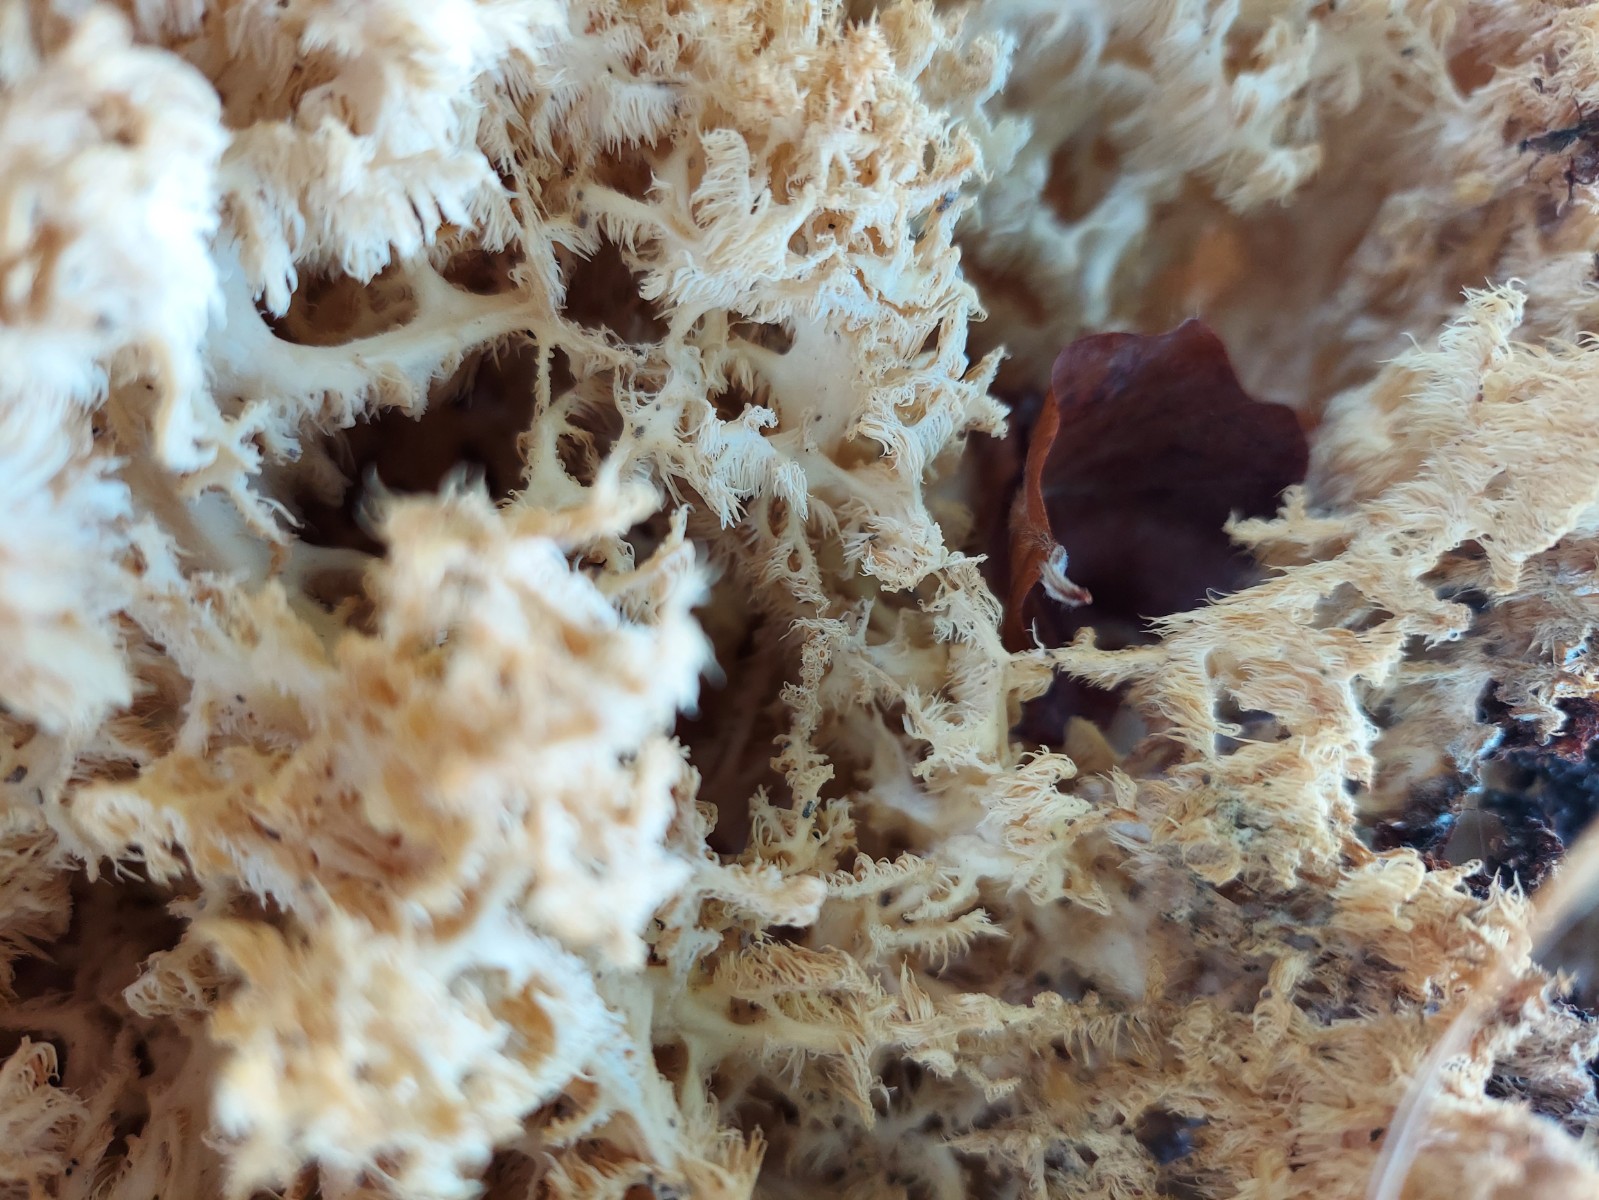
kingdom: Fungi
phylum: Basidiomycota
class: Agaricomycetes
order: Russulales
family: Hericiaceae
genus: Hericium
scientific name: Hericium coralloides
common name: koralpigsvamp
